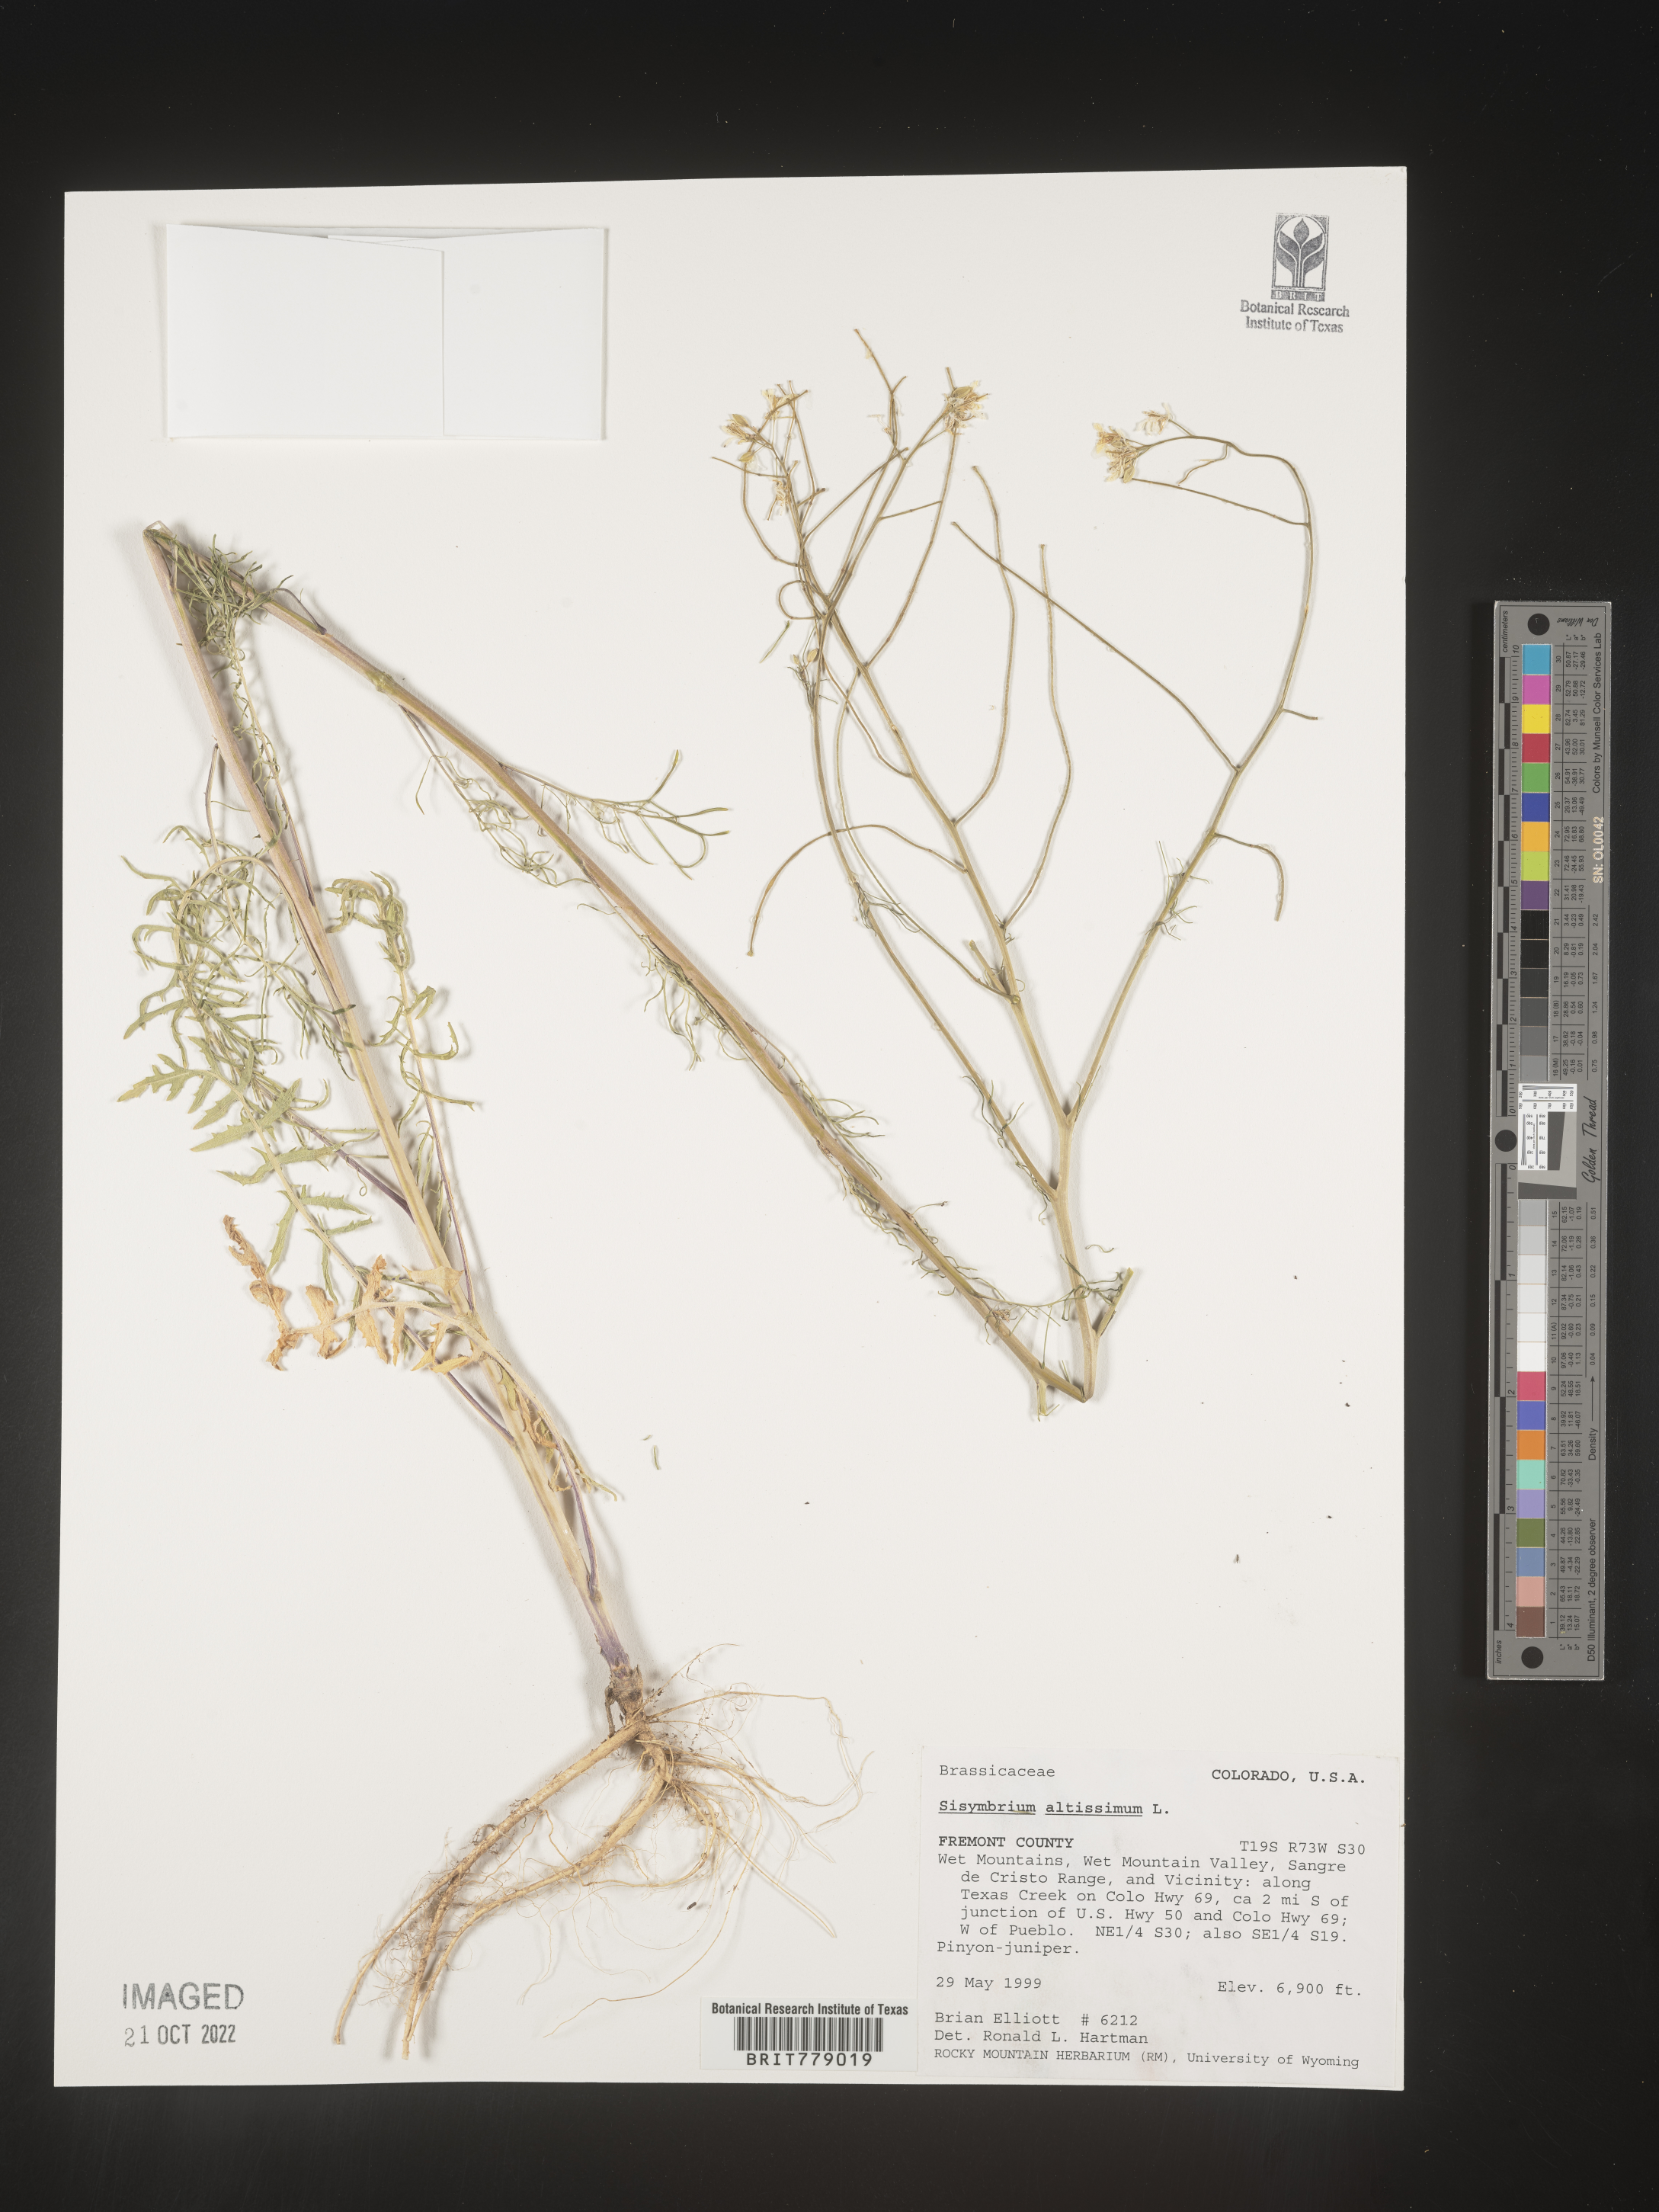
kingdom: Plantae
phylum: Tracheophyta
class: Magnoliopsida
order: Brassicales
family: Brassicaceae
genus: Sisymbrium
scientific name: Sisymbrium altissimum
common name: Tall rocket
